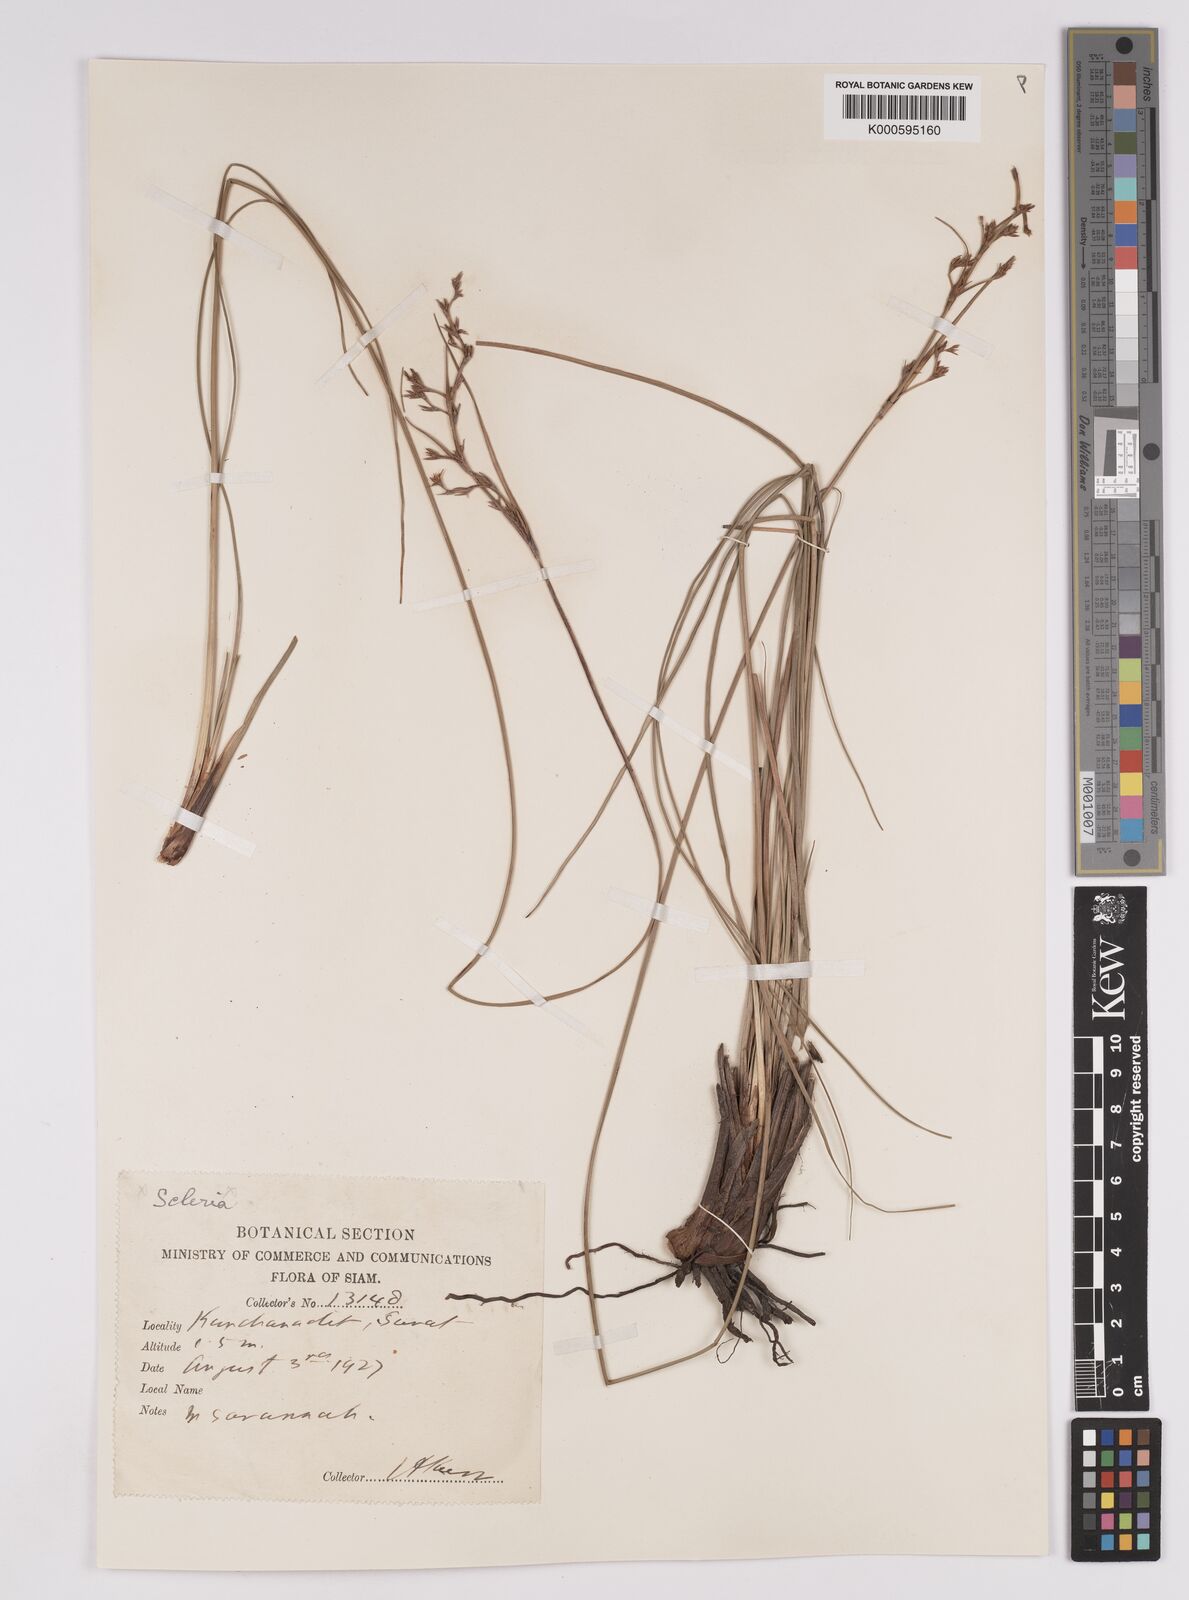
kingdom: Plantae
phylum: Tracheophyta
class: Liliopsida
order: Poales
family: Cyperaceae
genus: Anthelepis
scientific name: Anthelepis undulata
